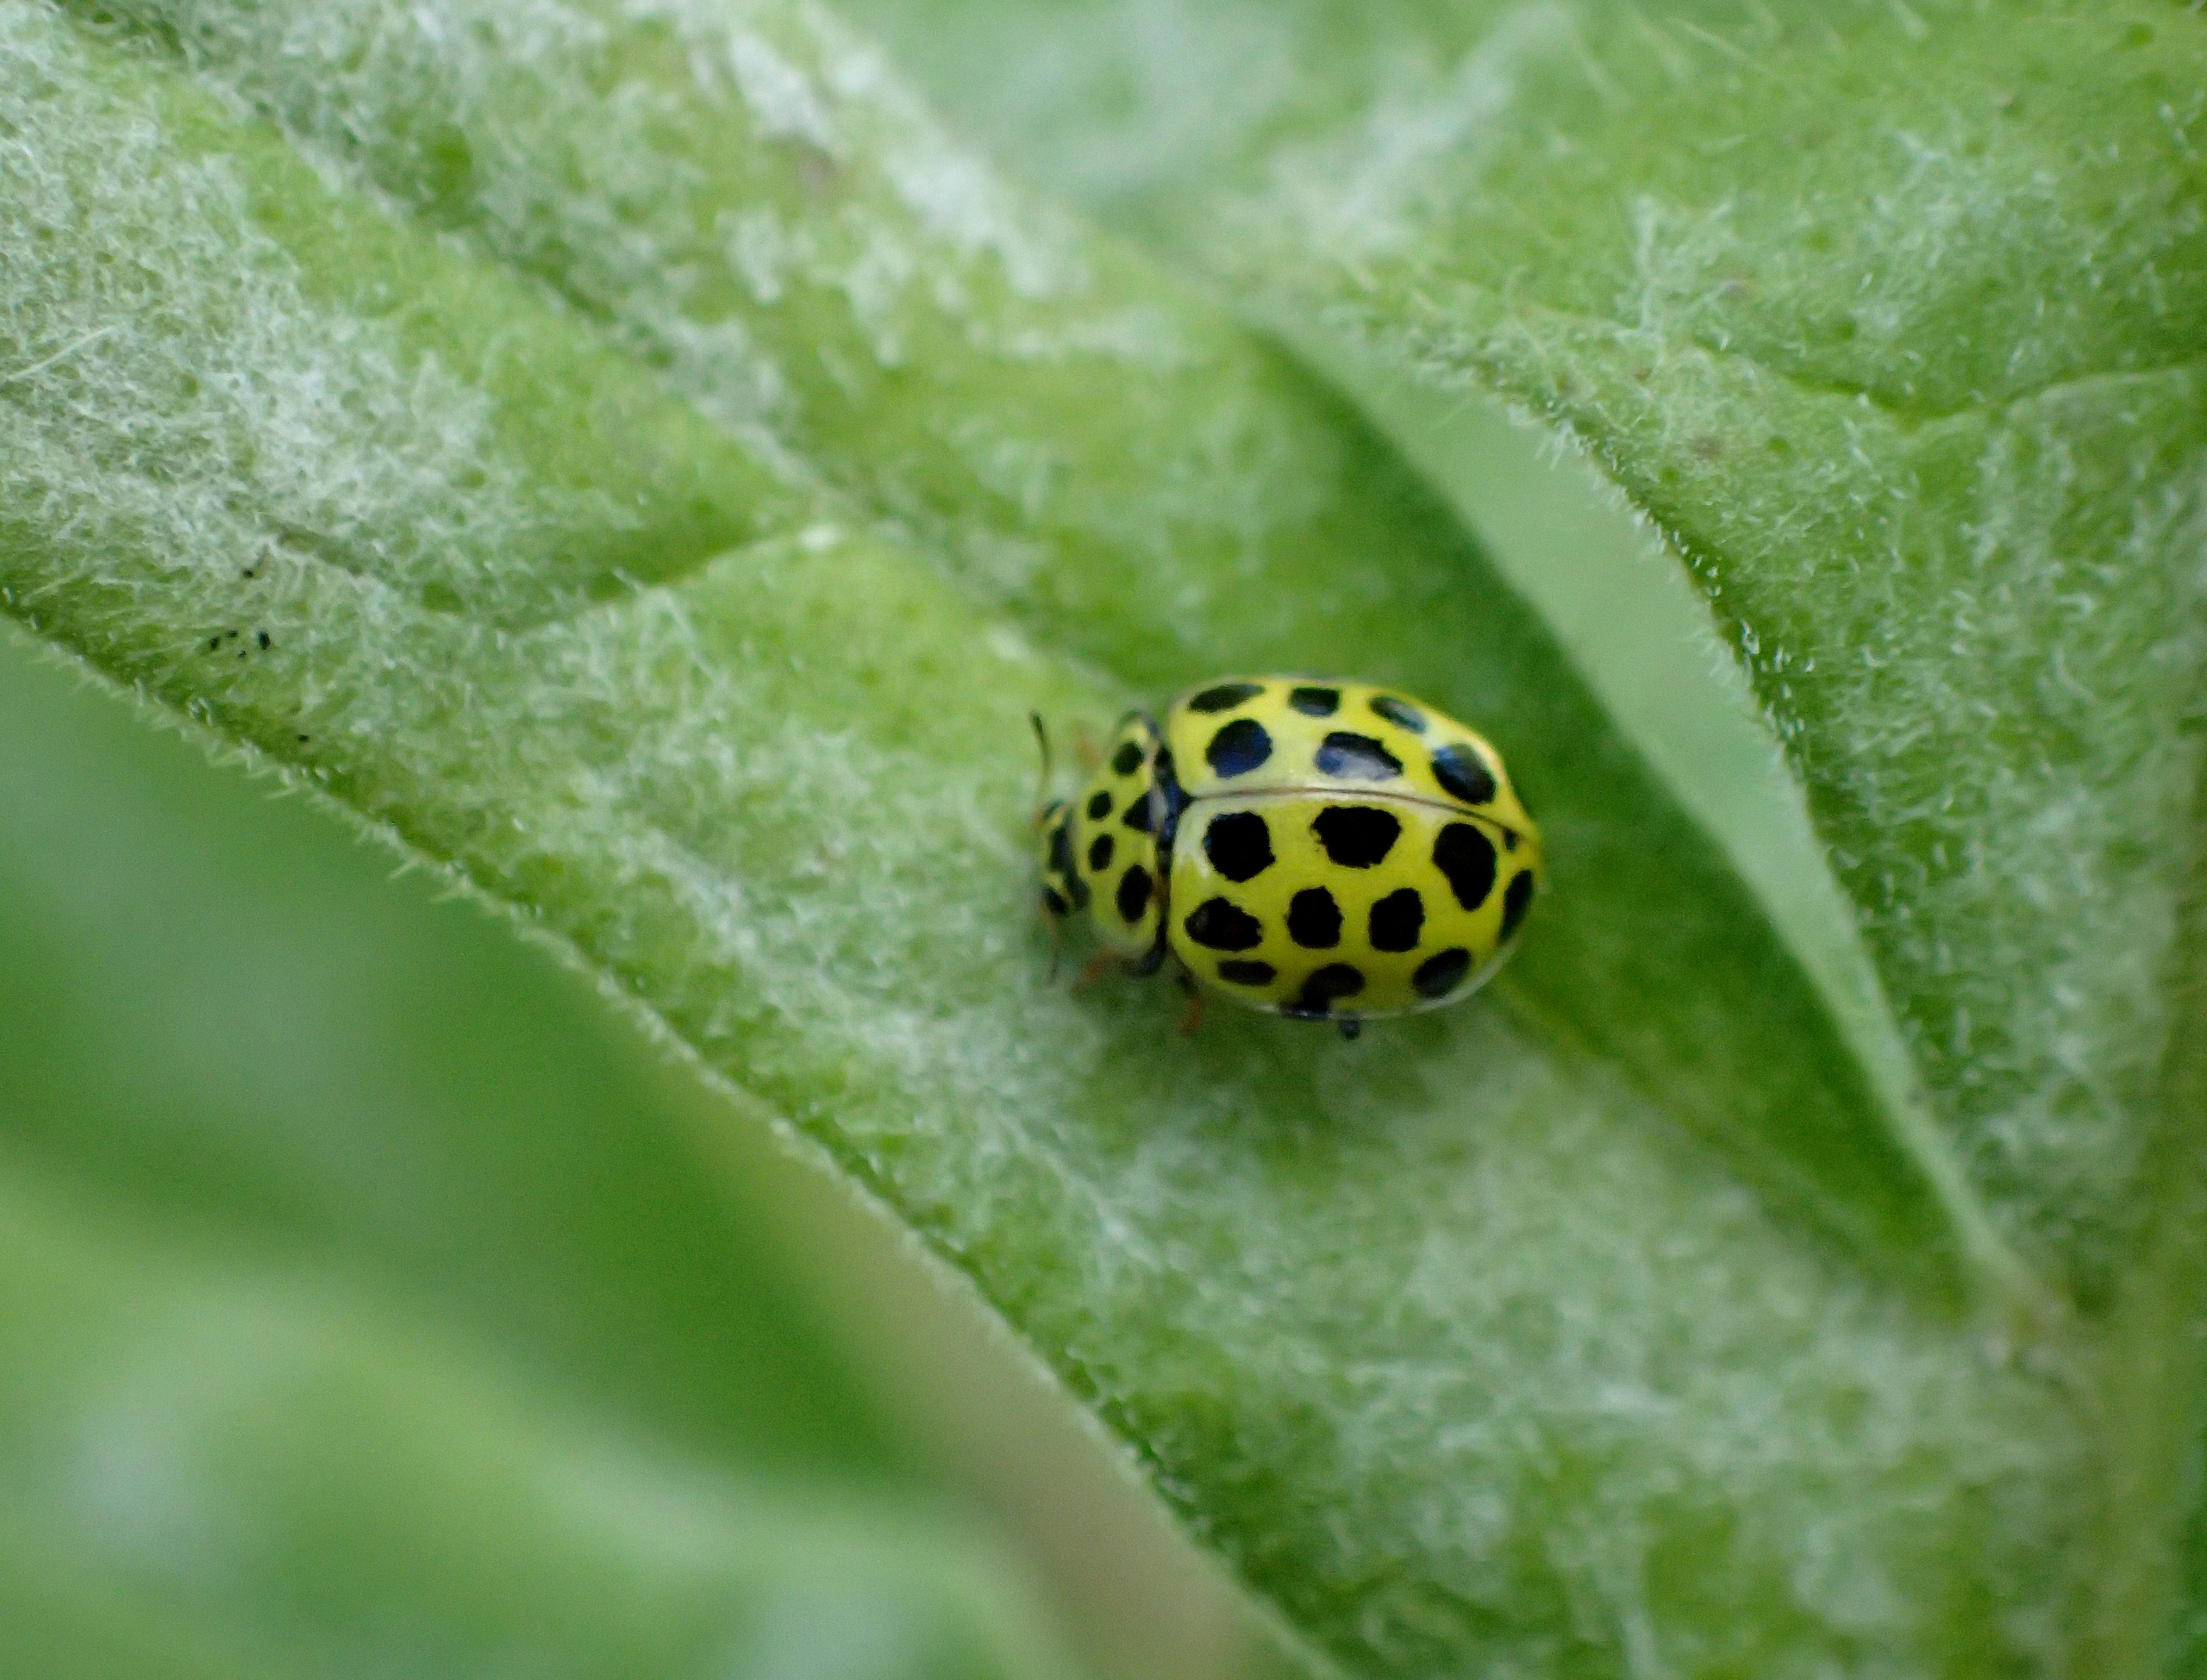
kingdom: Animalia
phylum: Arthropoda
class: Insecta
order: Coleoptera
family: Coccinellidae
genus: Psyllobora
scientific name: Psyllobora vigintiduopunctata
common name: Toogtyveplettet mariehøne
